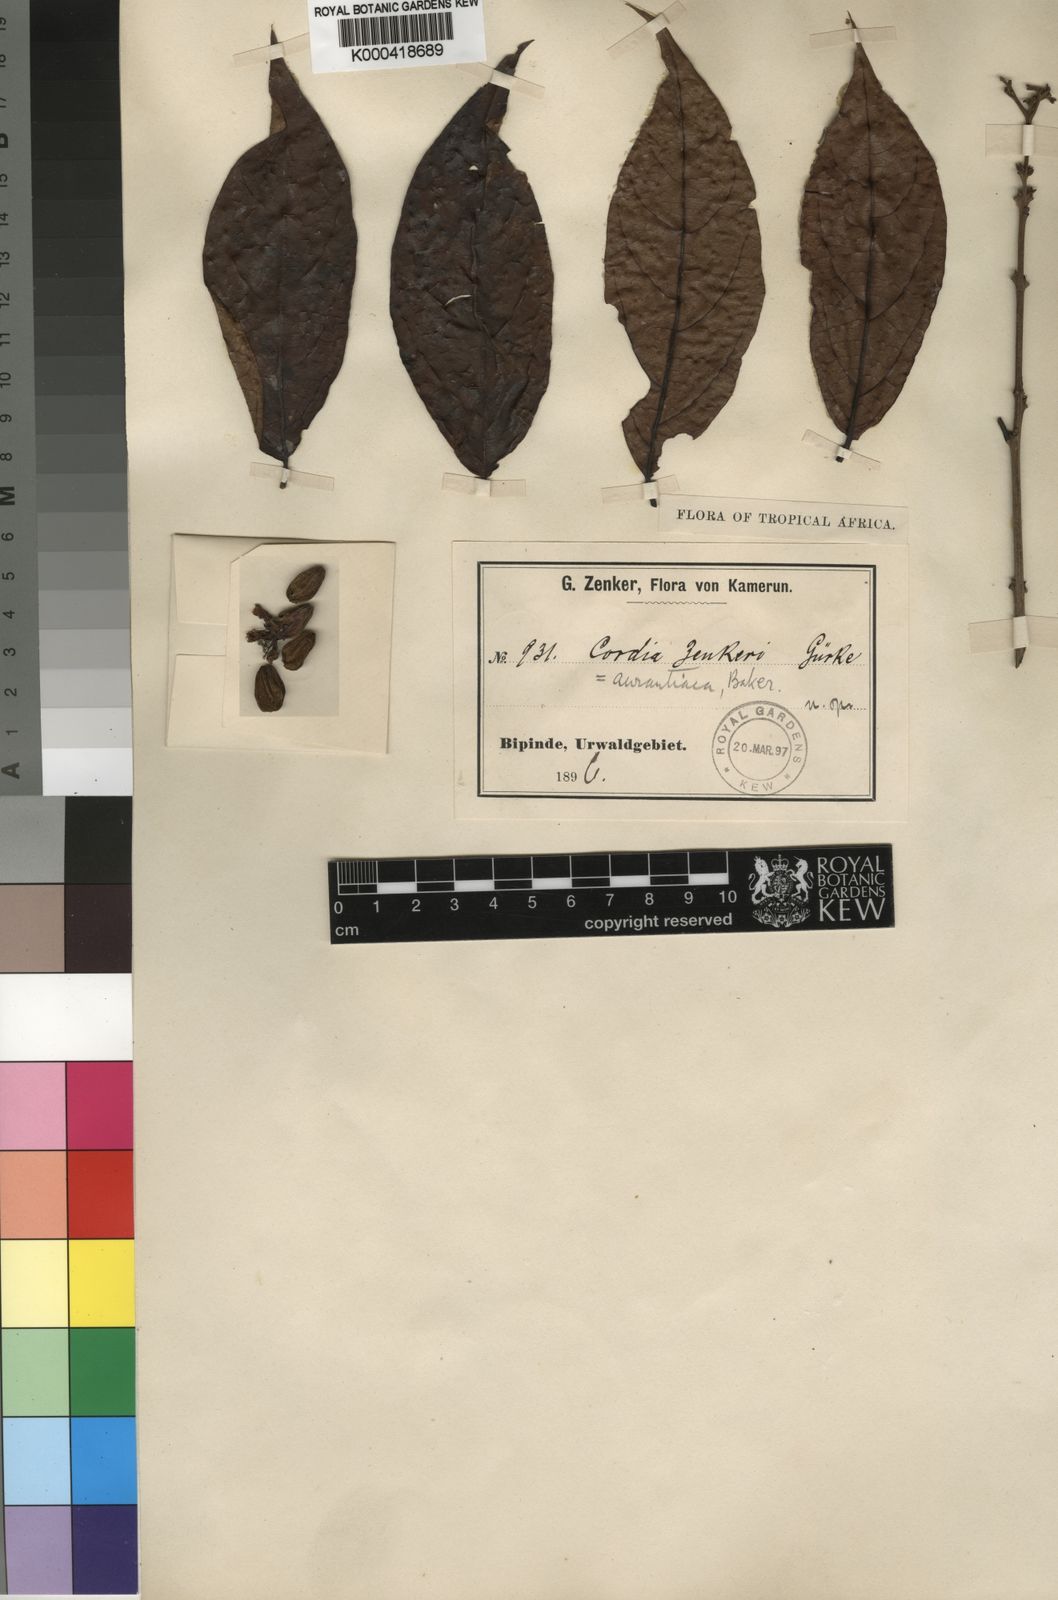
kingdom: Plantae
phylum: Tracheophyta
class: Magnoliopsida
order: Boraginales
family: Cordiaceae
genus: Cordia
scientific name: Cordia aurantiaca
